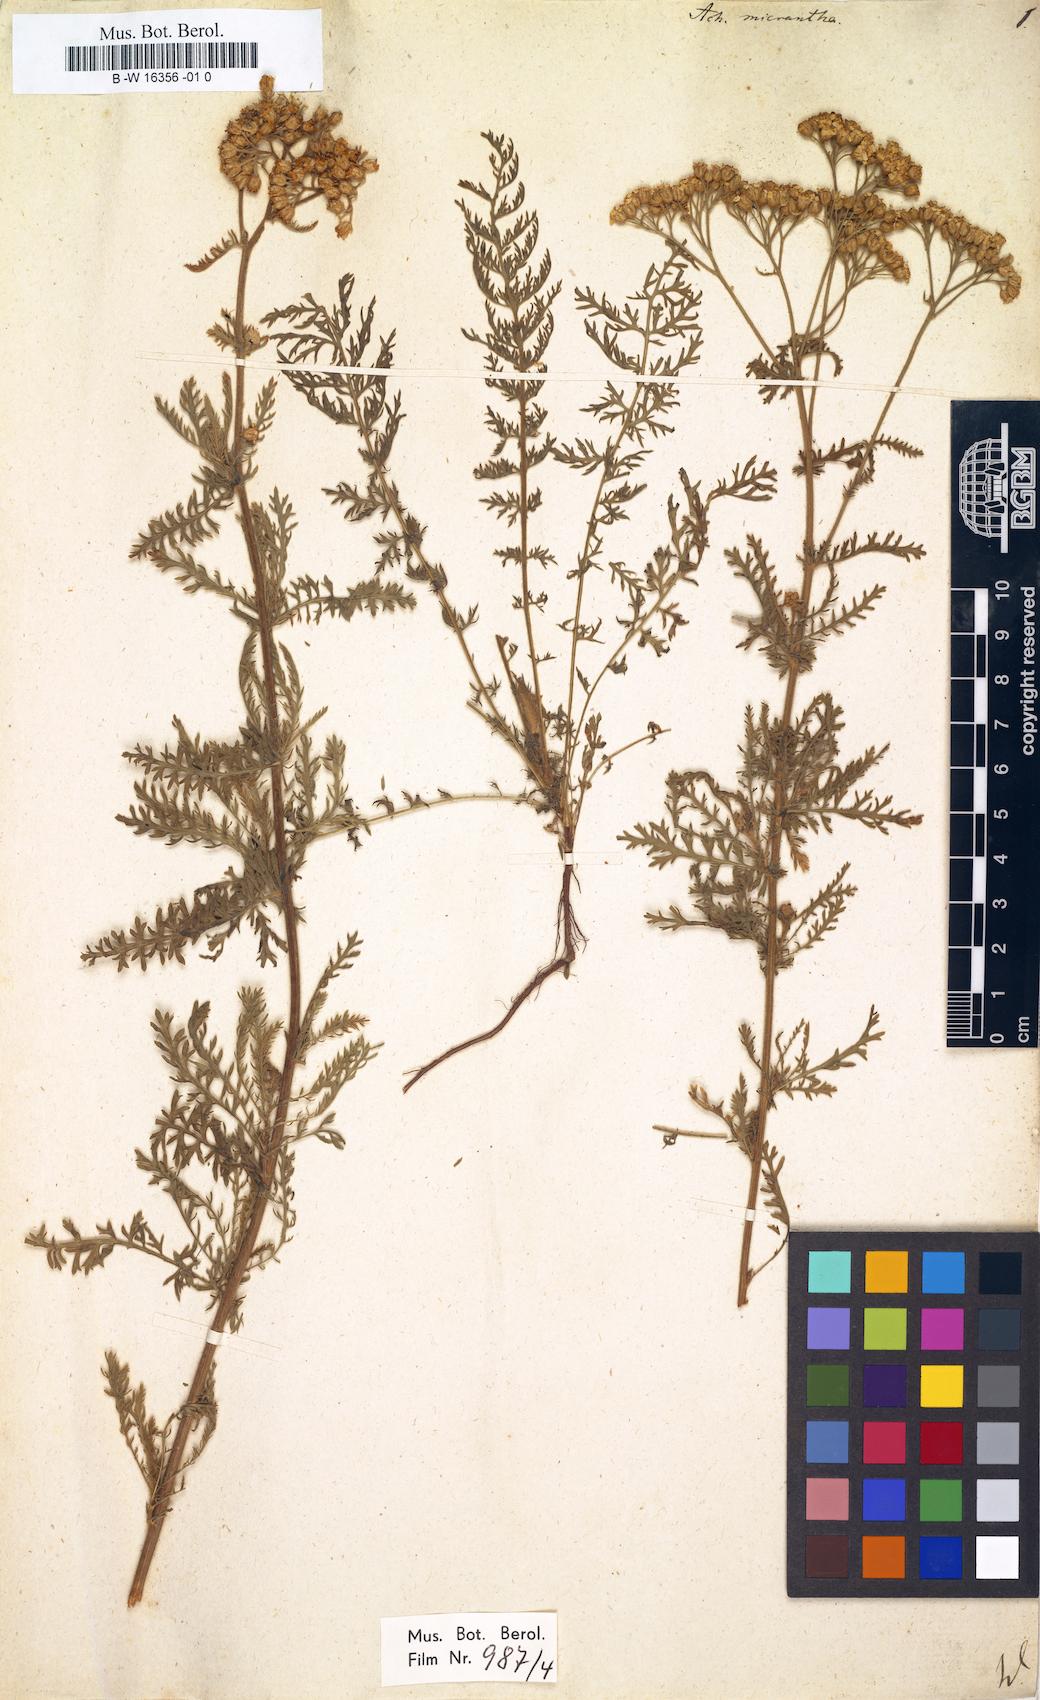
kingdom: Plantae
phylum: Tracheophyta
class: Magnoliopsida
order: Asterales
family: Asteraceae
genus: Achillea
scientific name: Achillea arabica
